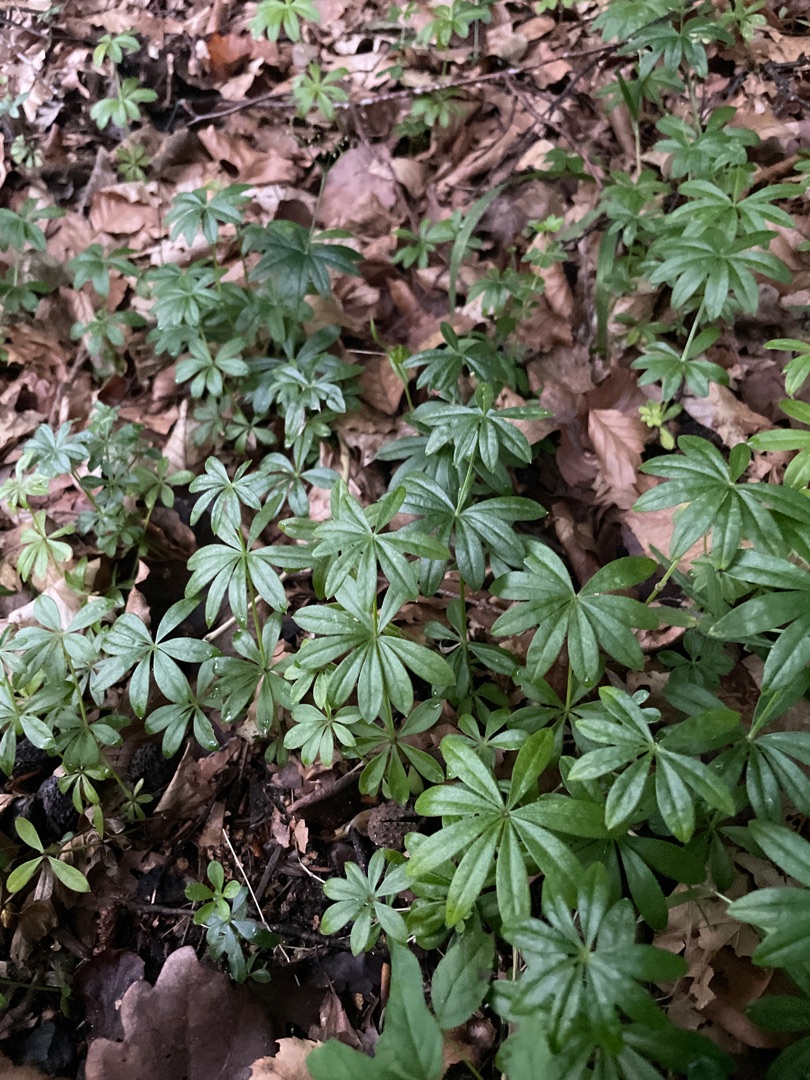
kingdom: Plantae
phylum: Tracheophyta
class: Magnoliopsida
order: Gentianales
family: Rubiaceae
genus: Galium
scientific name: Galium odoratum
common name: Skovmærke
